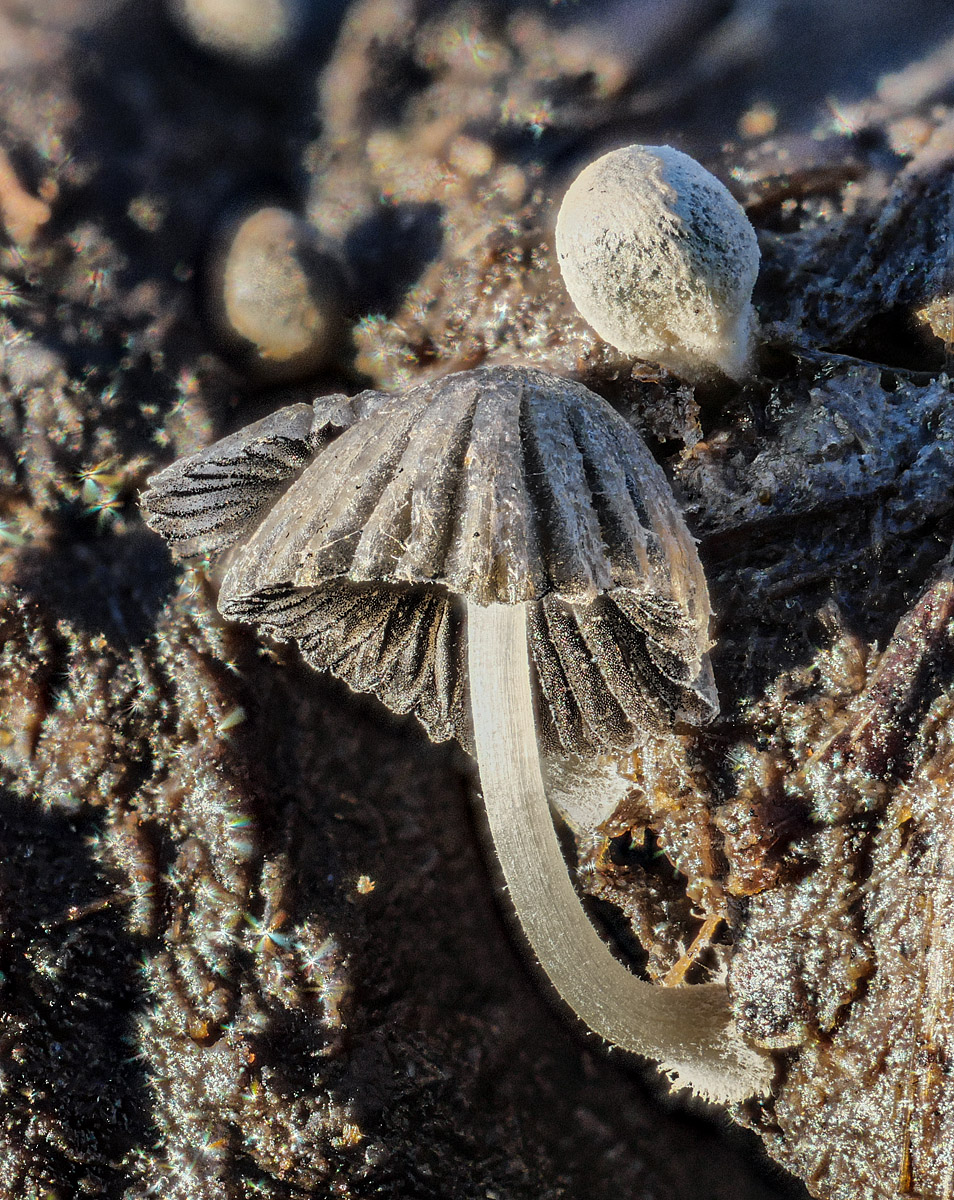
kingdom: Fungi
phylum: Basidiomycota
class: Agaricomycetes
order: Agaricales
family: Psathyrellaceae
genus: Coprinopsis
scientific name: Coprinopsis
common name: blækhat
